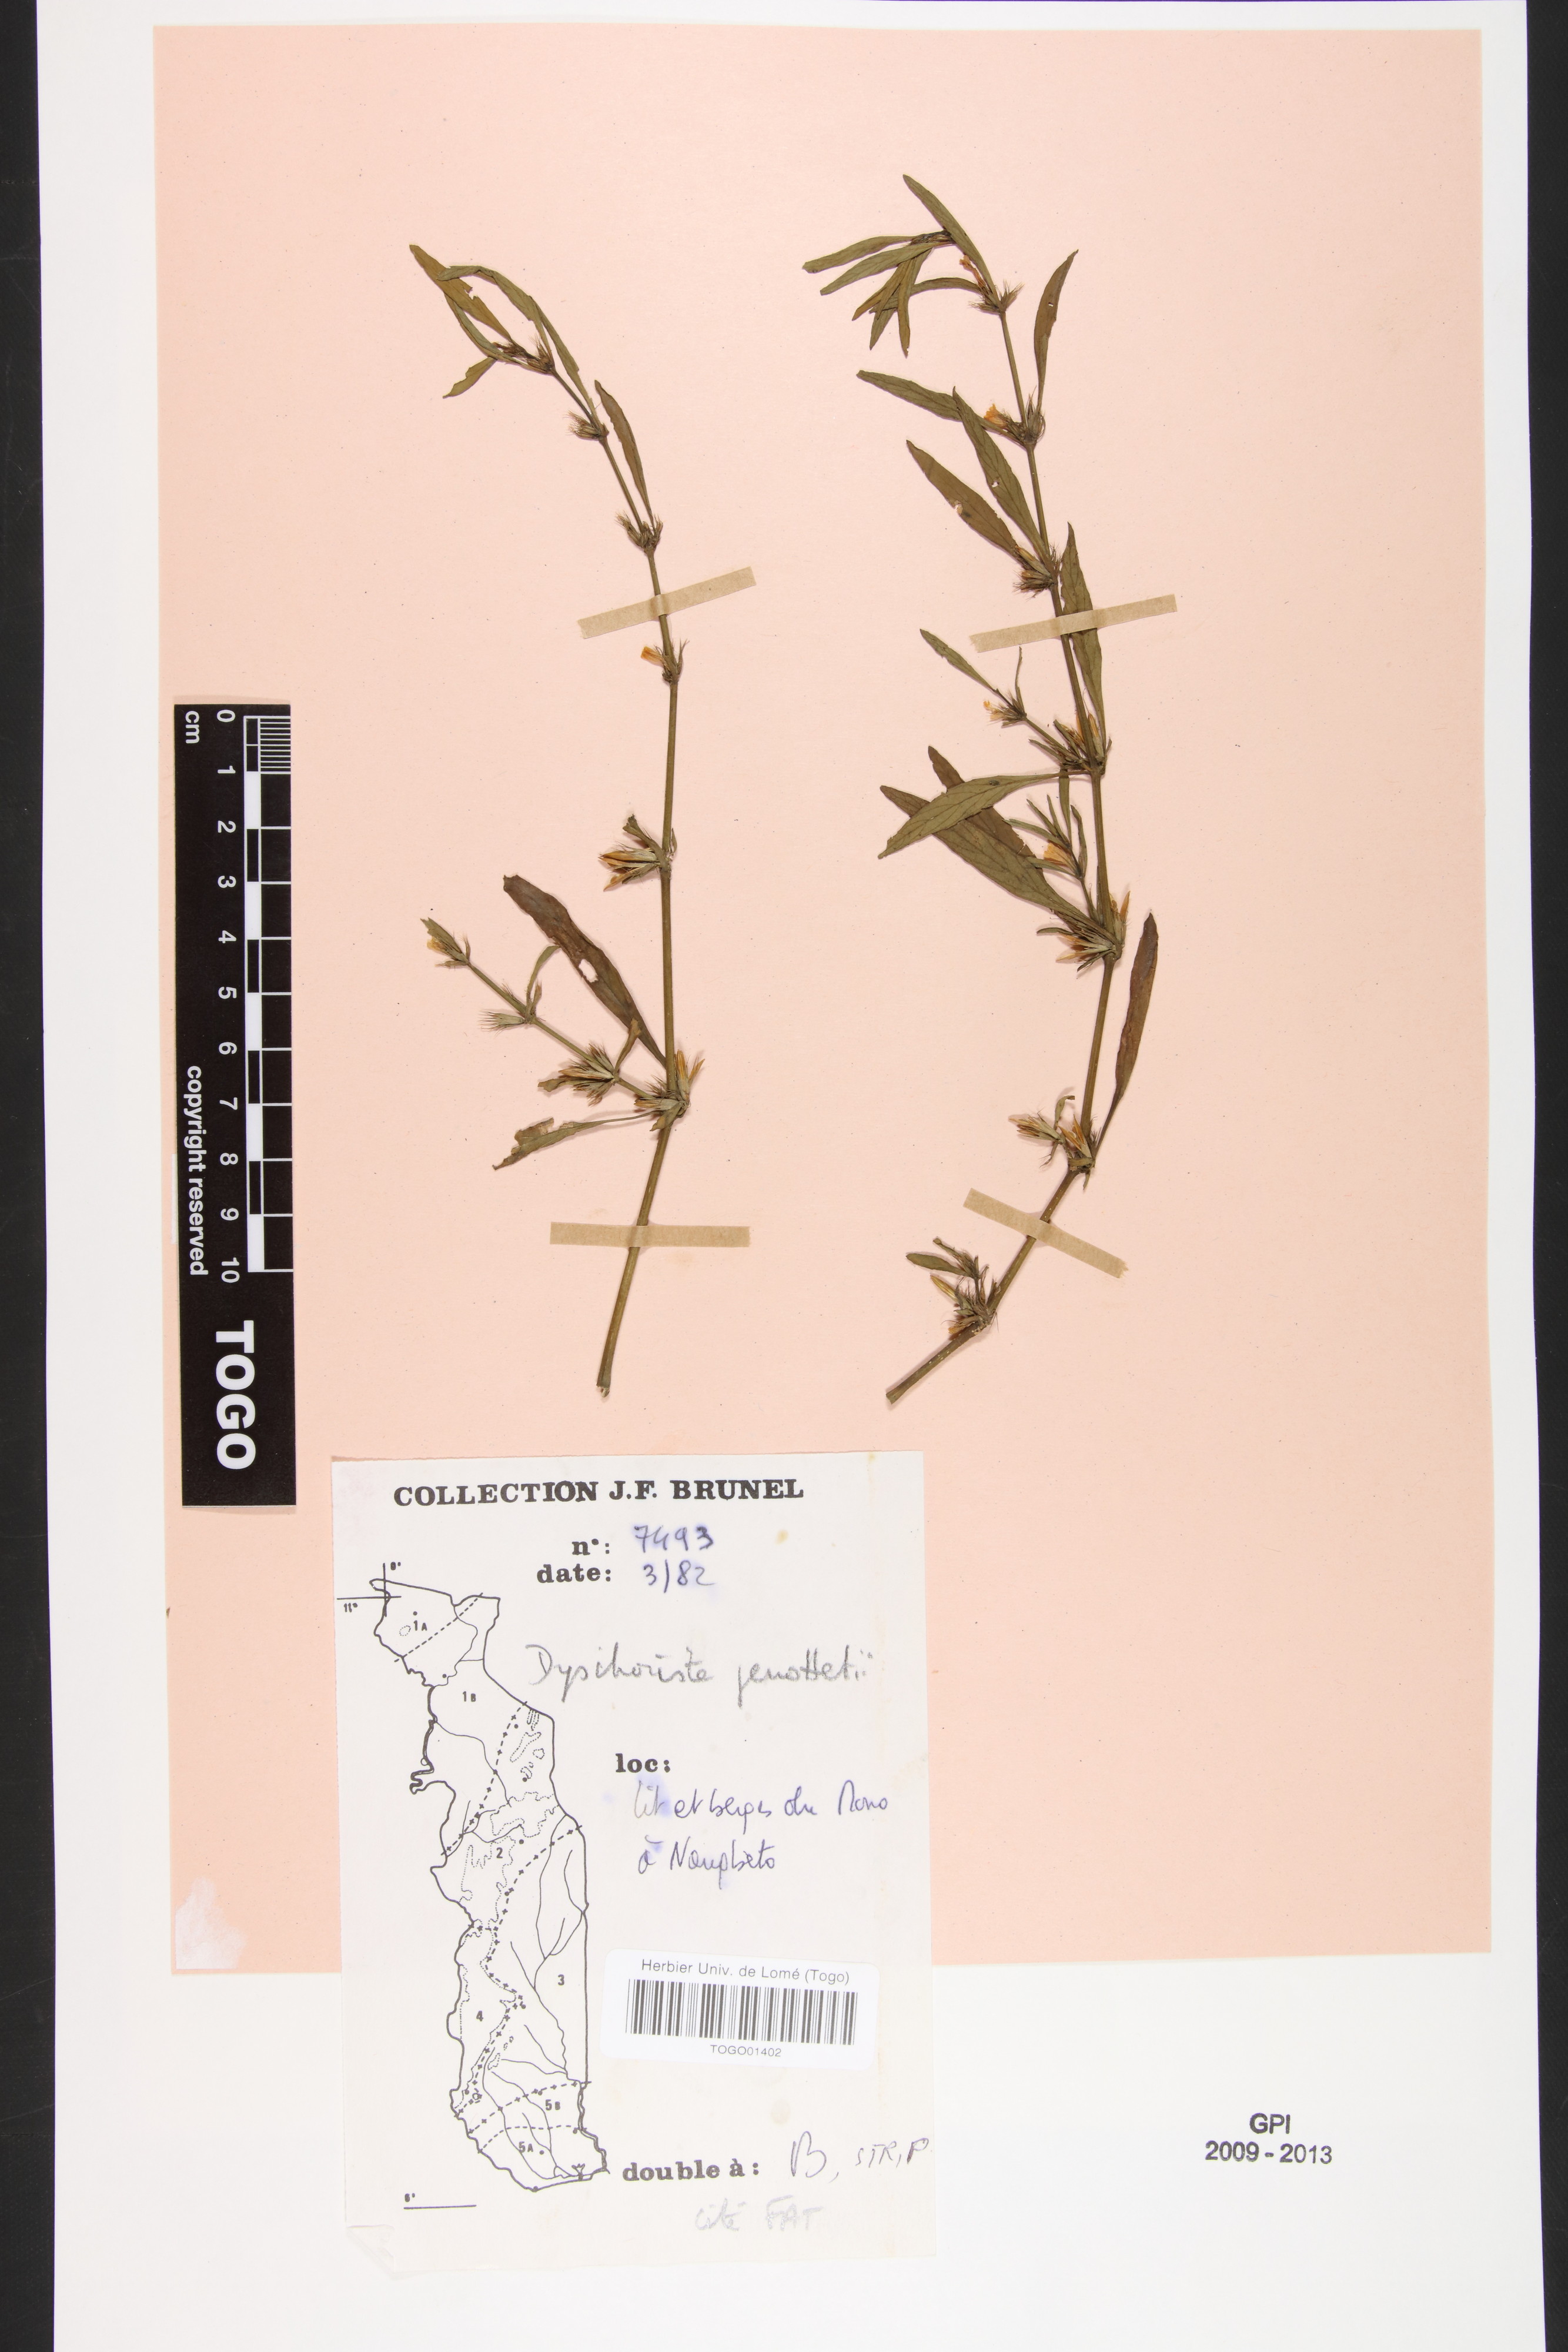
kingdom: Plantae
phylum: Tracheophyta
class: Magnoliopsida
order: Lamiales
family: Acanthaceae
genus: Dyschoriste
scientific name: Dyschoriste nagchana
